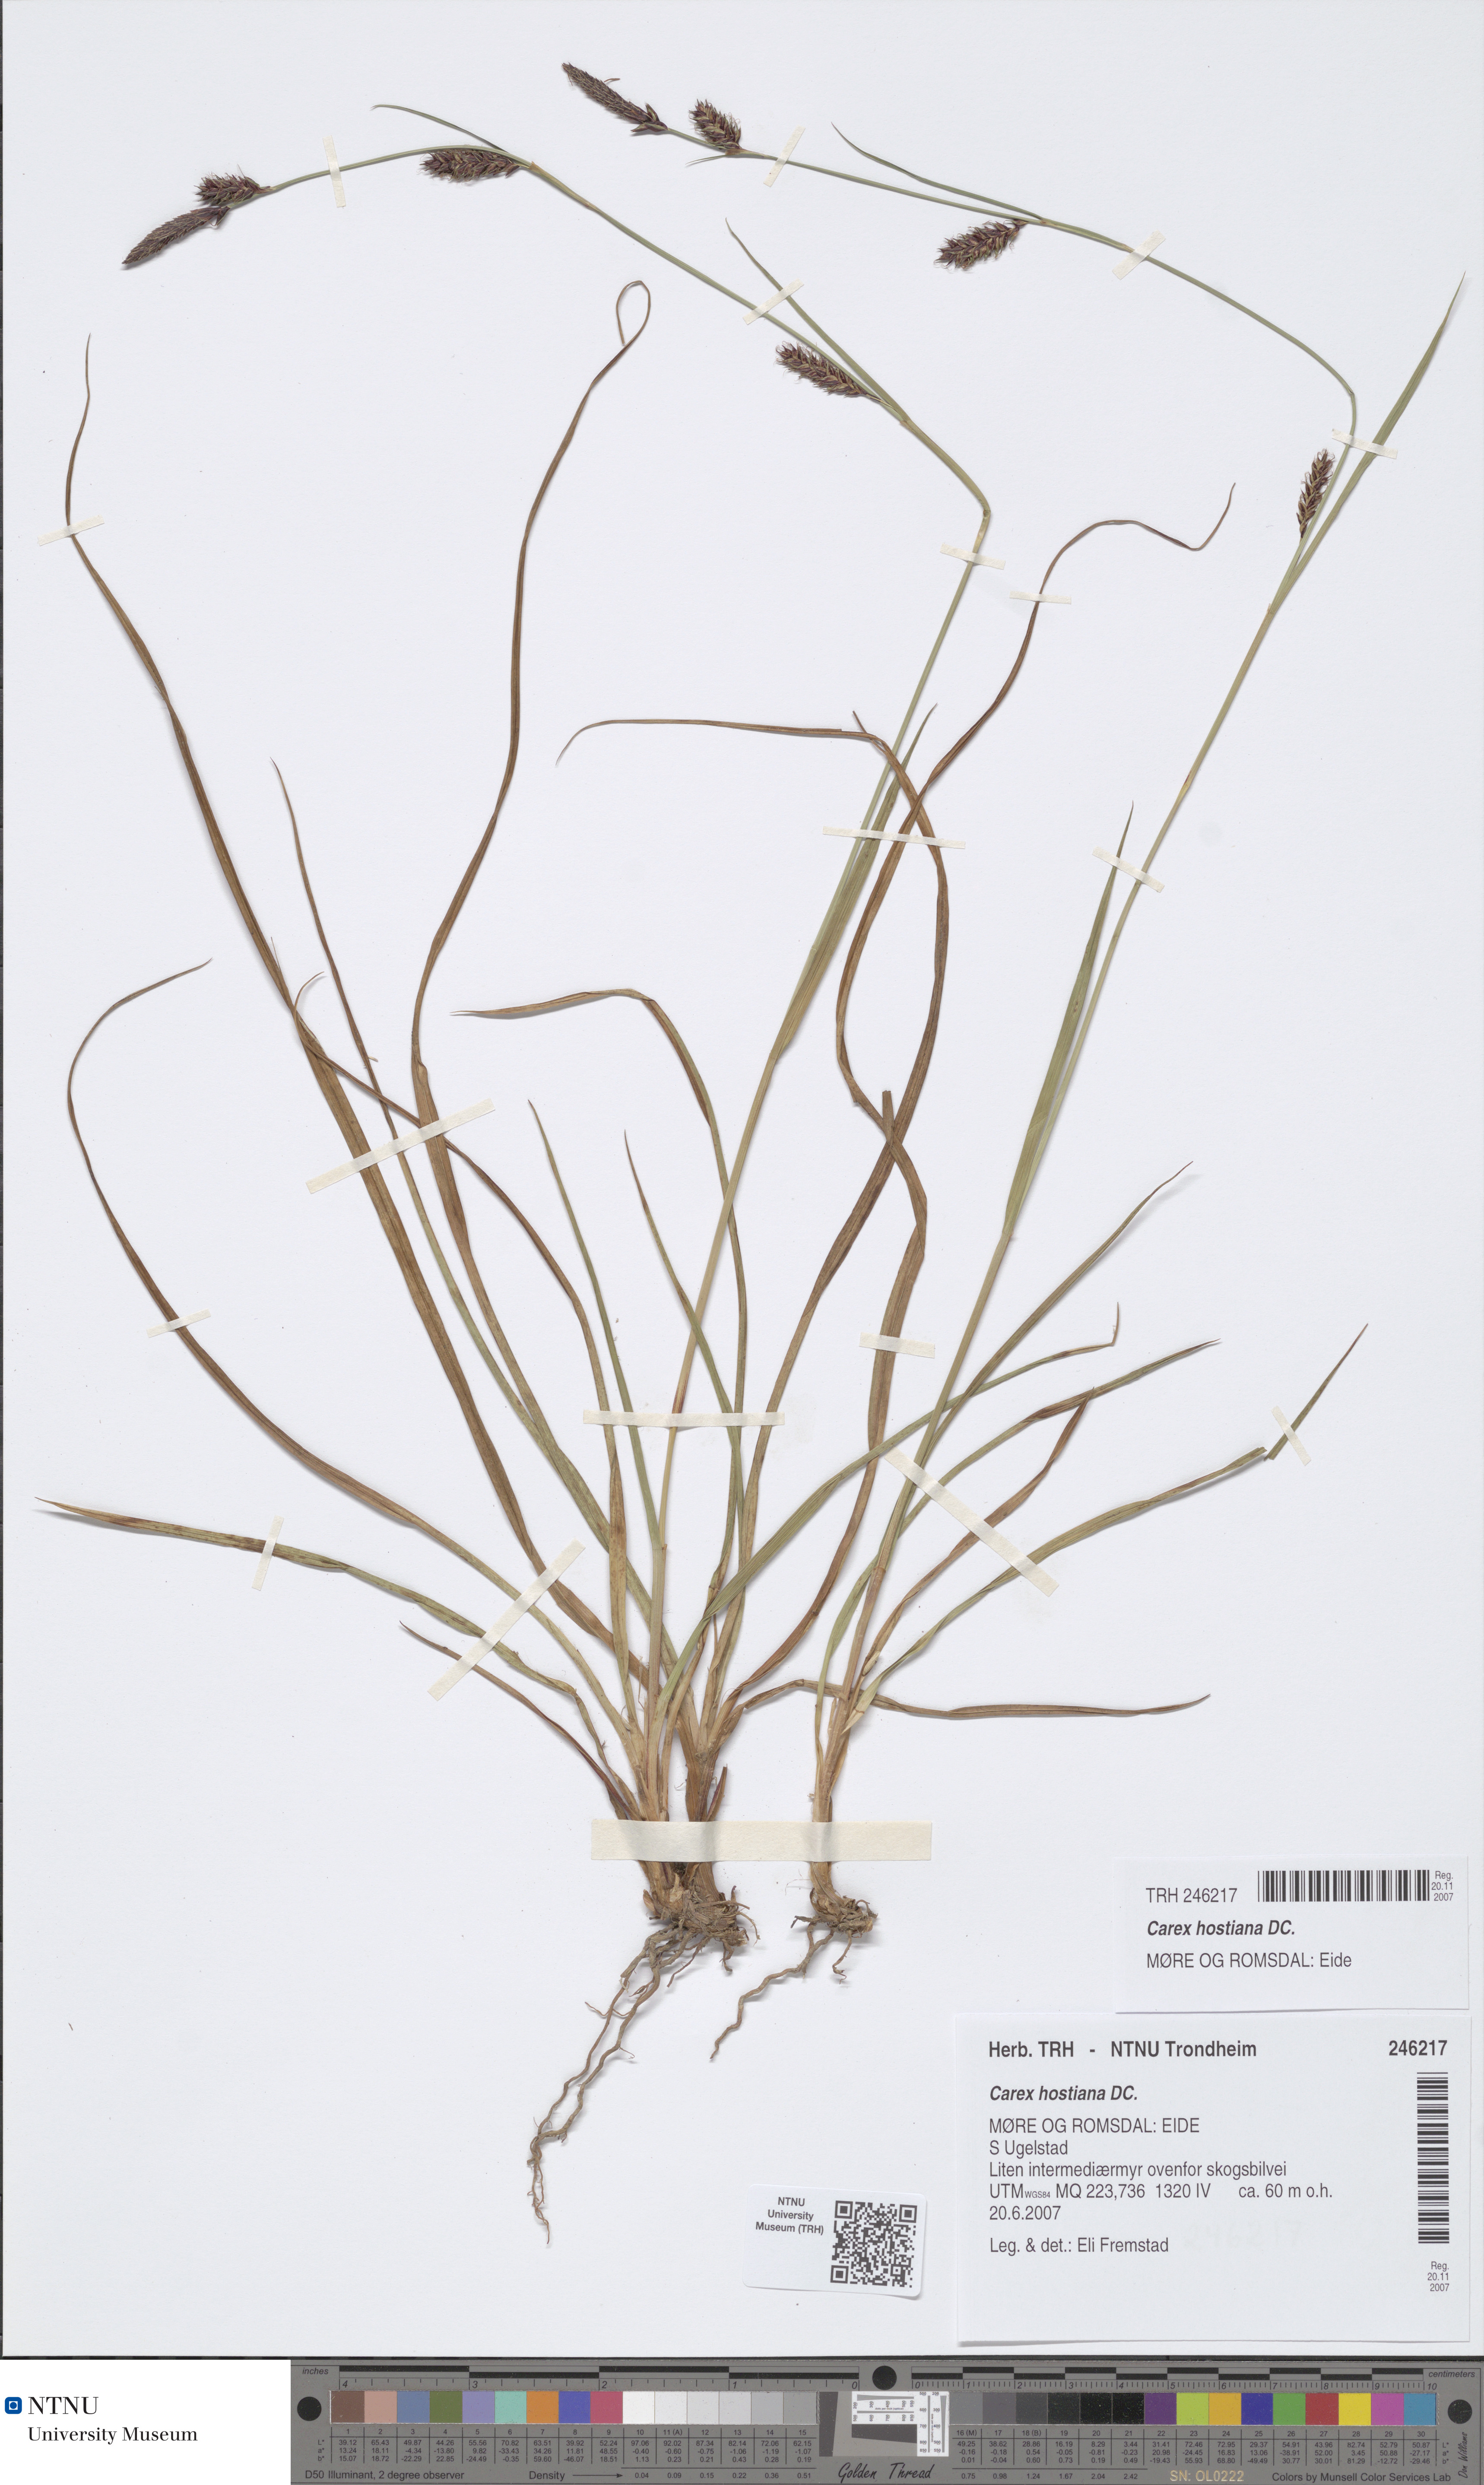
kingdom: Plantae
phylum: Tracheophyta
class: Liliopsida
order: Poales
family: Cyperaceae
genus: Carex
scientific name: Carex hostiana
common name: Tawny sedge
